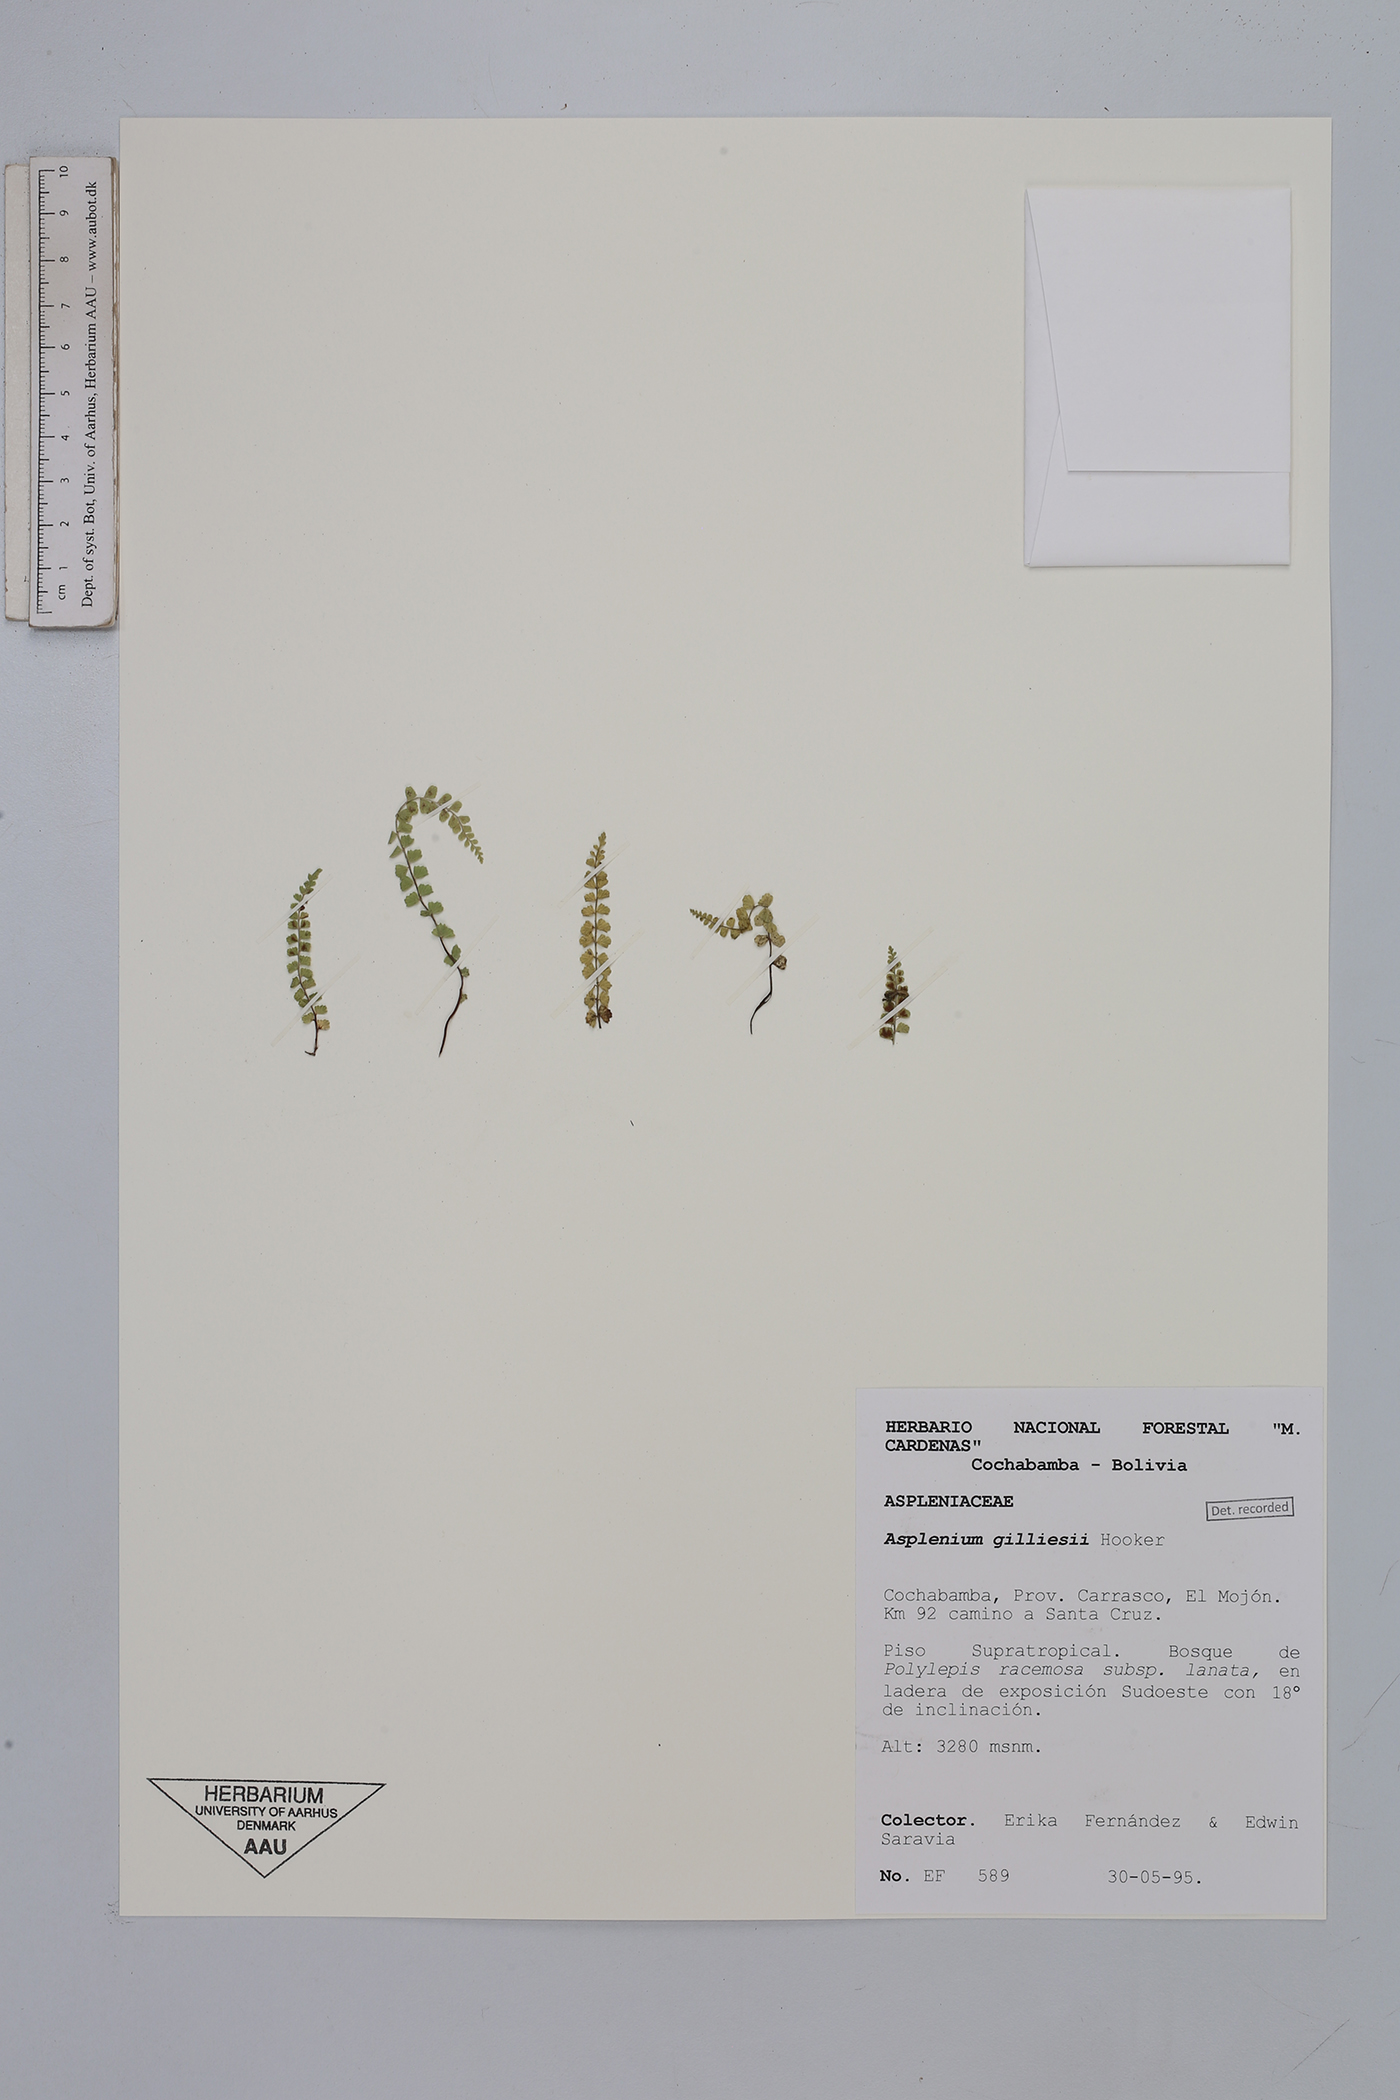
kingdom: Plantae
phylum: Tracheophyta
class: Polypodiopsida
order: Polypodiales
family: Aspleniaceae
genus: Asplenium
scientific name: Asplenium gilliesii
